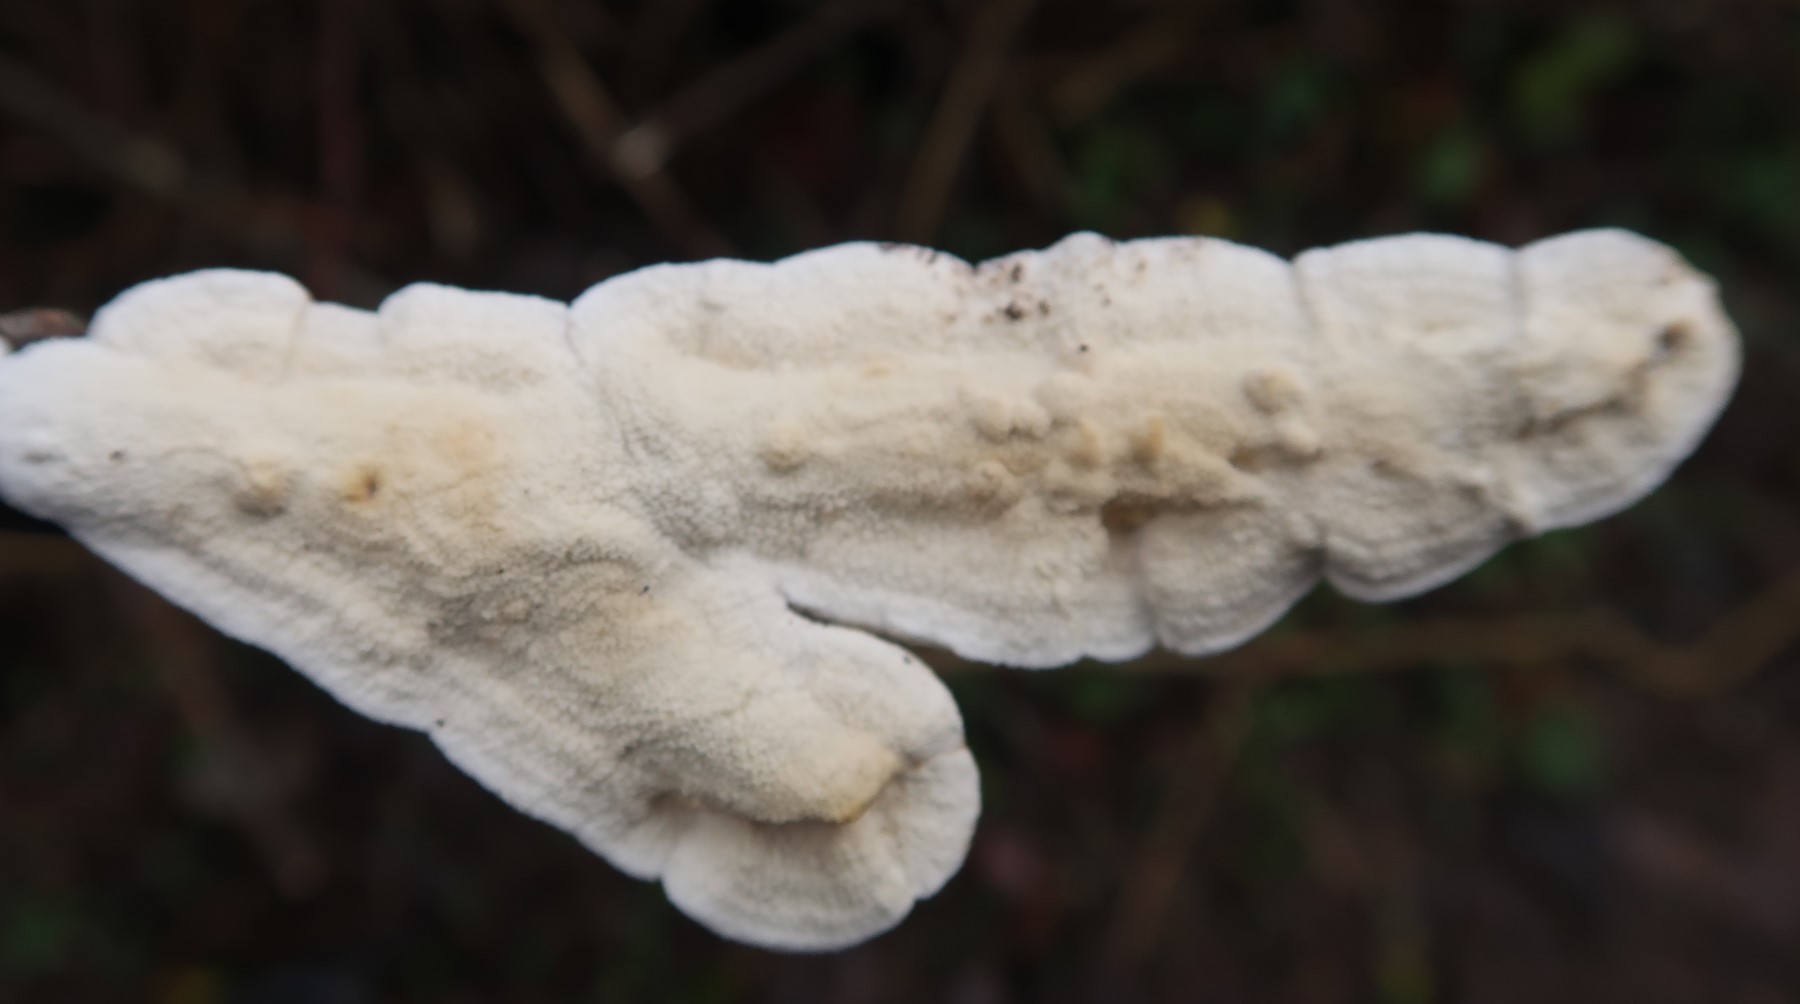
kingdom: Fungi
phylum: Basidiomycota
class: Agaricomycetes
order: Polyporales
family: Irpicaceae
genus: Byssomerulius
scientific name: Byssomerulius corium
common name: læder-åresvamp
